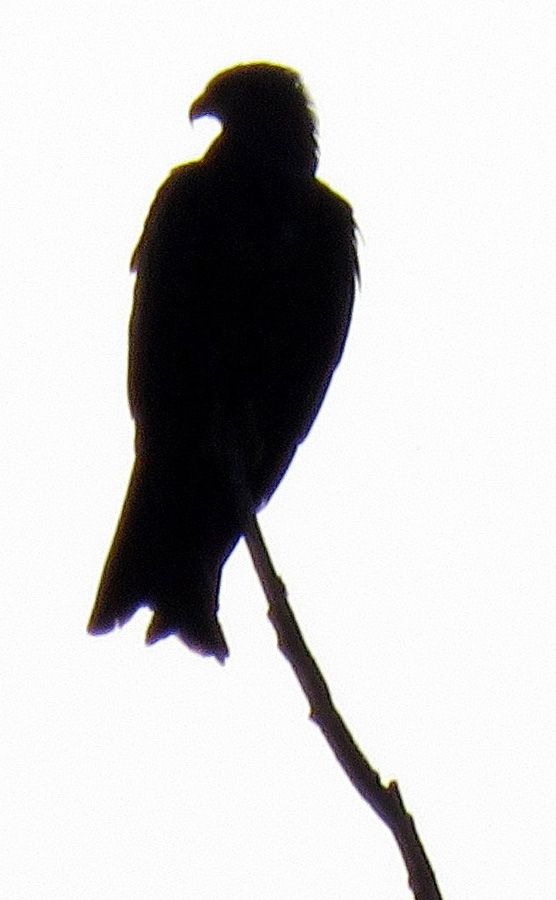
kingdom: Animalia
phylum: Chordata
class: Aves
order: Accipitriformes
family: Accipitridae
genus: Milvus
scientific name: Milvus migrans
